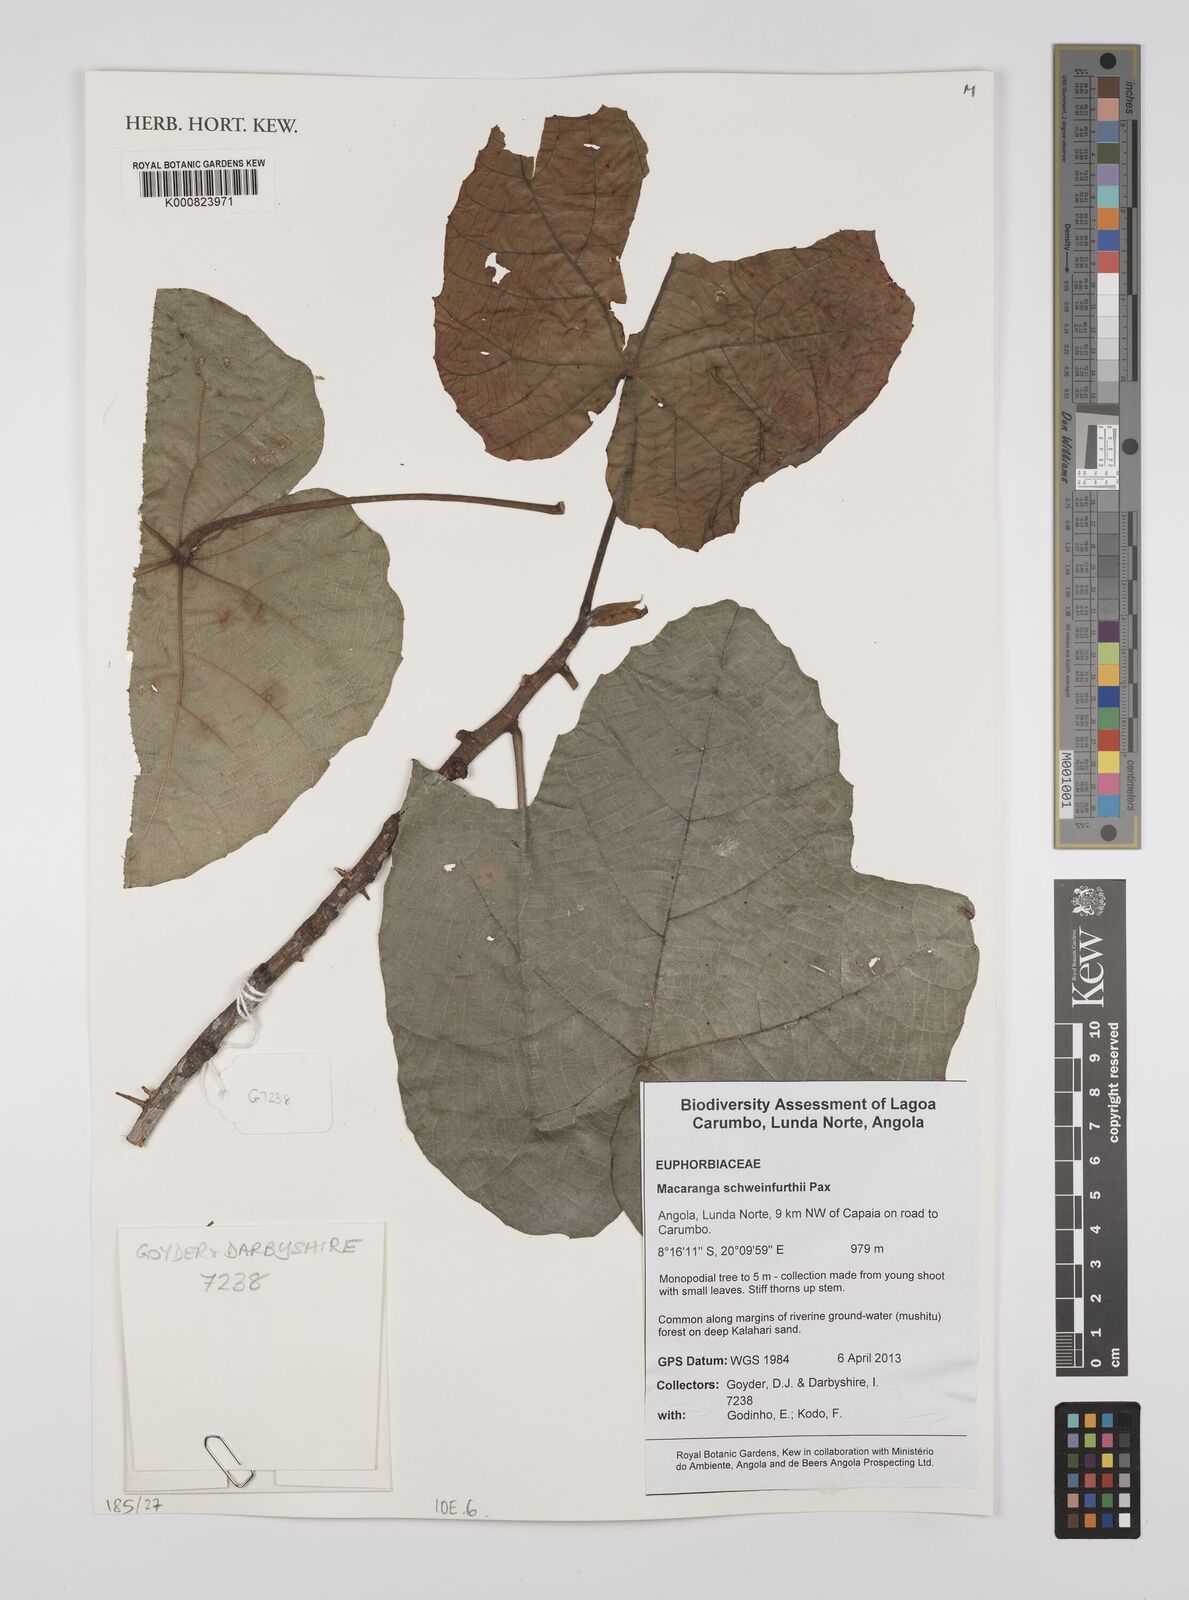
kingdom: Plantae
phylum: Tracheophyta
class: Magnoliopsida
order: Malpighiales
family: Euphorbiaceae
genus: Macaranga
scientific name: Macaranga schweinfurthii
